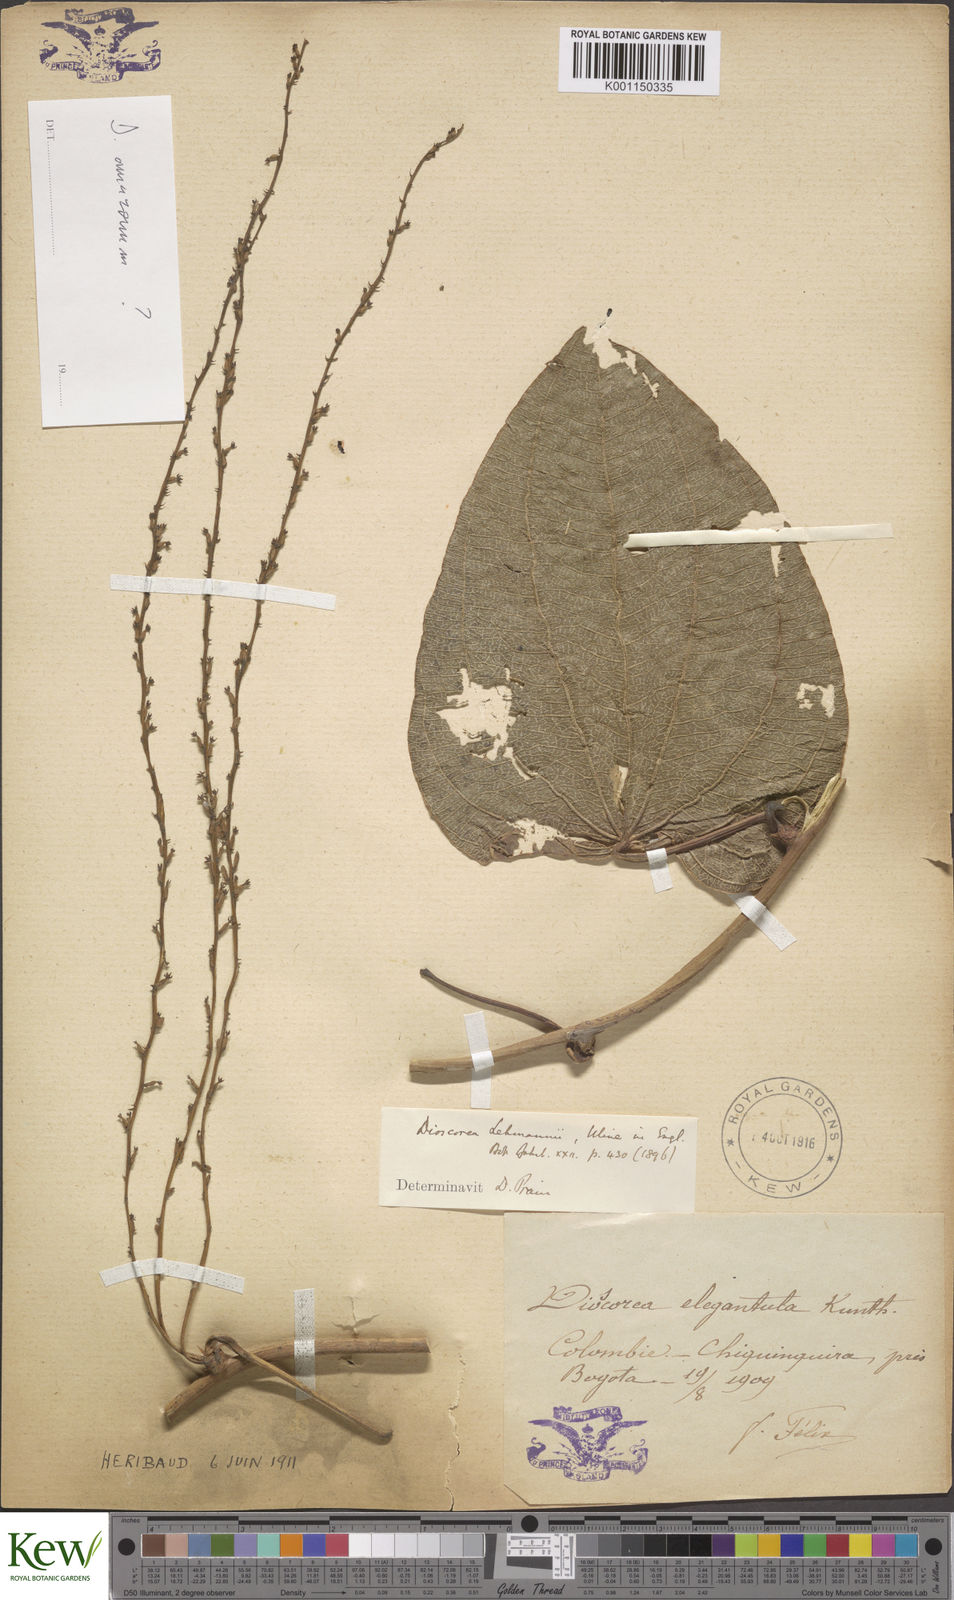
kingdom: Plantae
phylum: Tracheophyta
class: Liliopsida
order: Dioscoreales
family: Dioscoreaceae
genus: Dioscorea
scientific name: Dioscorea lehmannii
